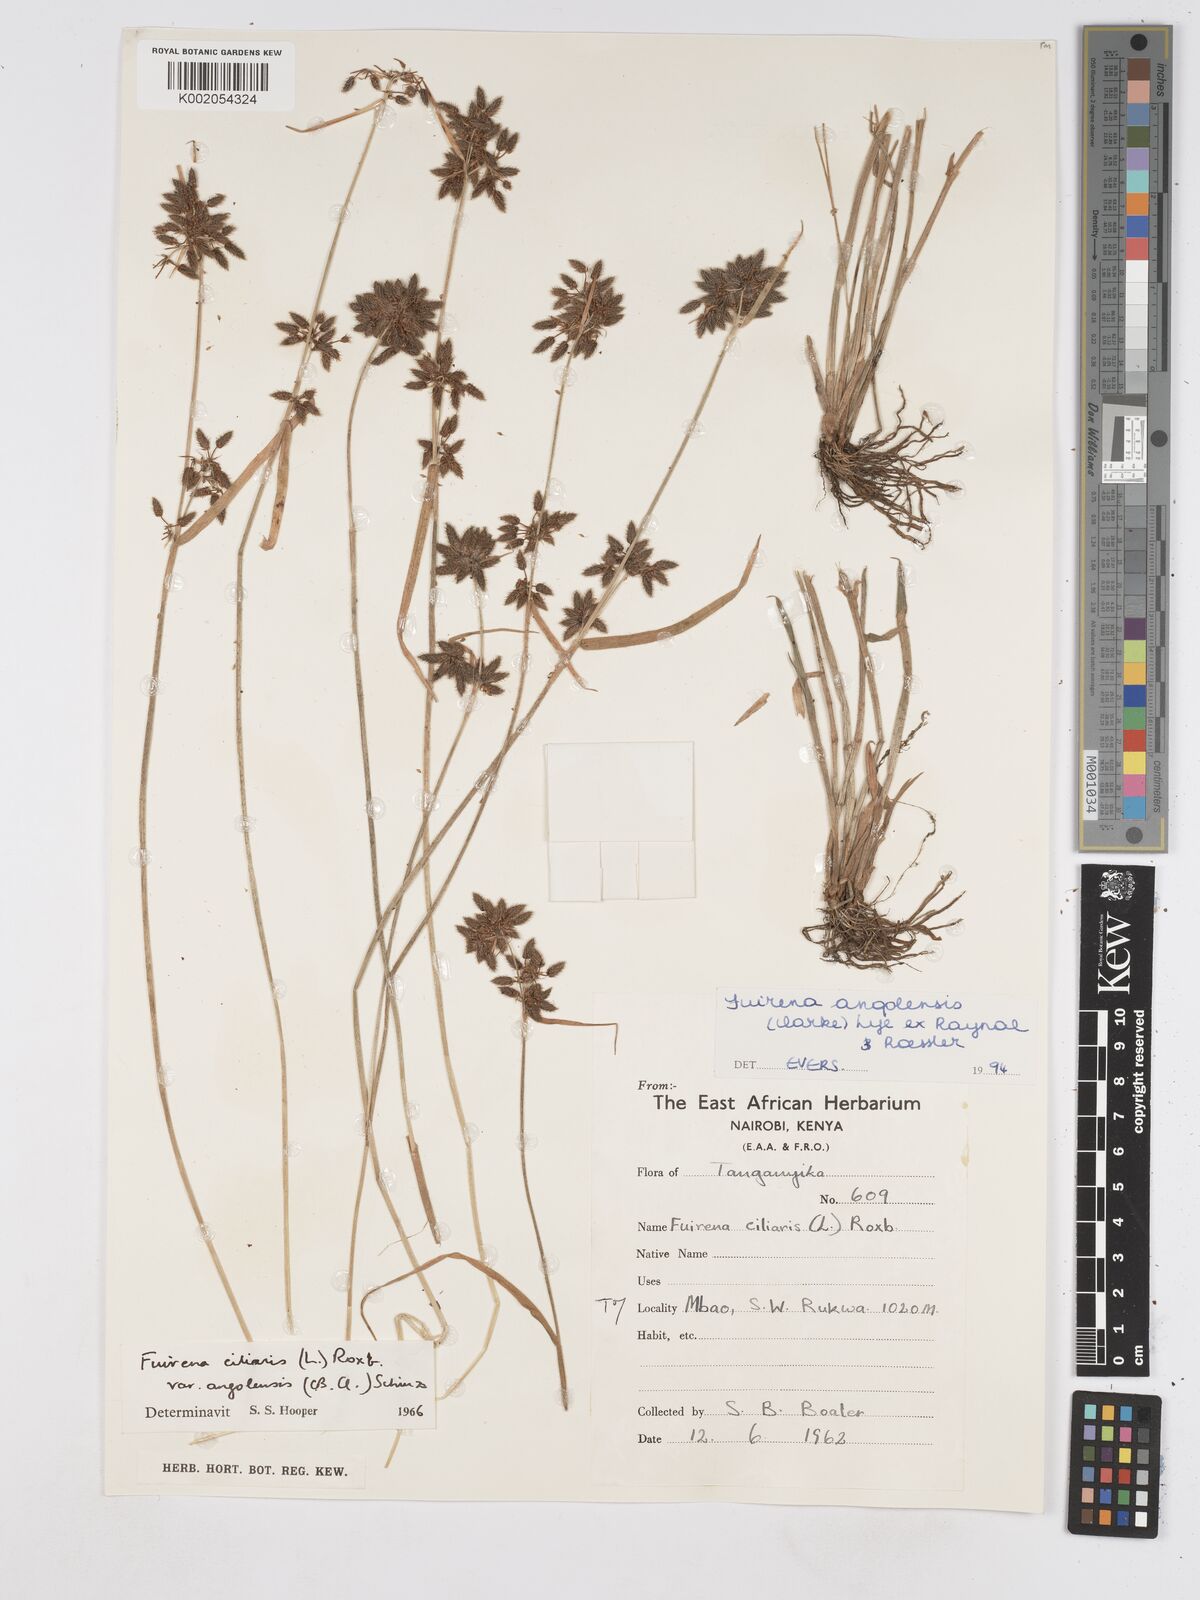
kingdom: Plantae
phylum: Tracheophyta
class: Liliopsida
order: Poales
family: Cyperaceae
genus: Fuirena
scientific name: Fuirena angolensis
